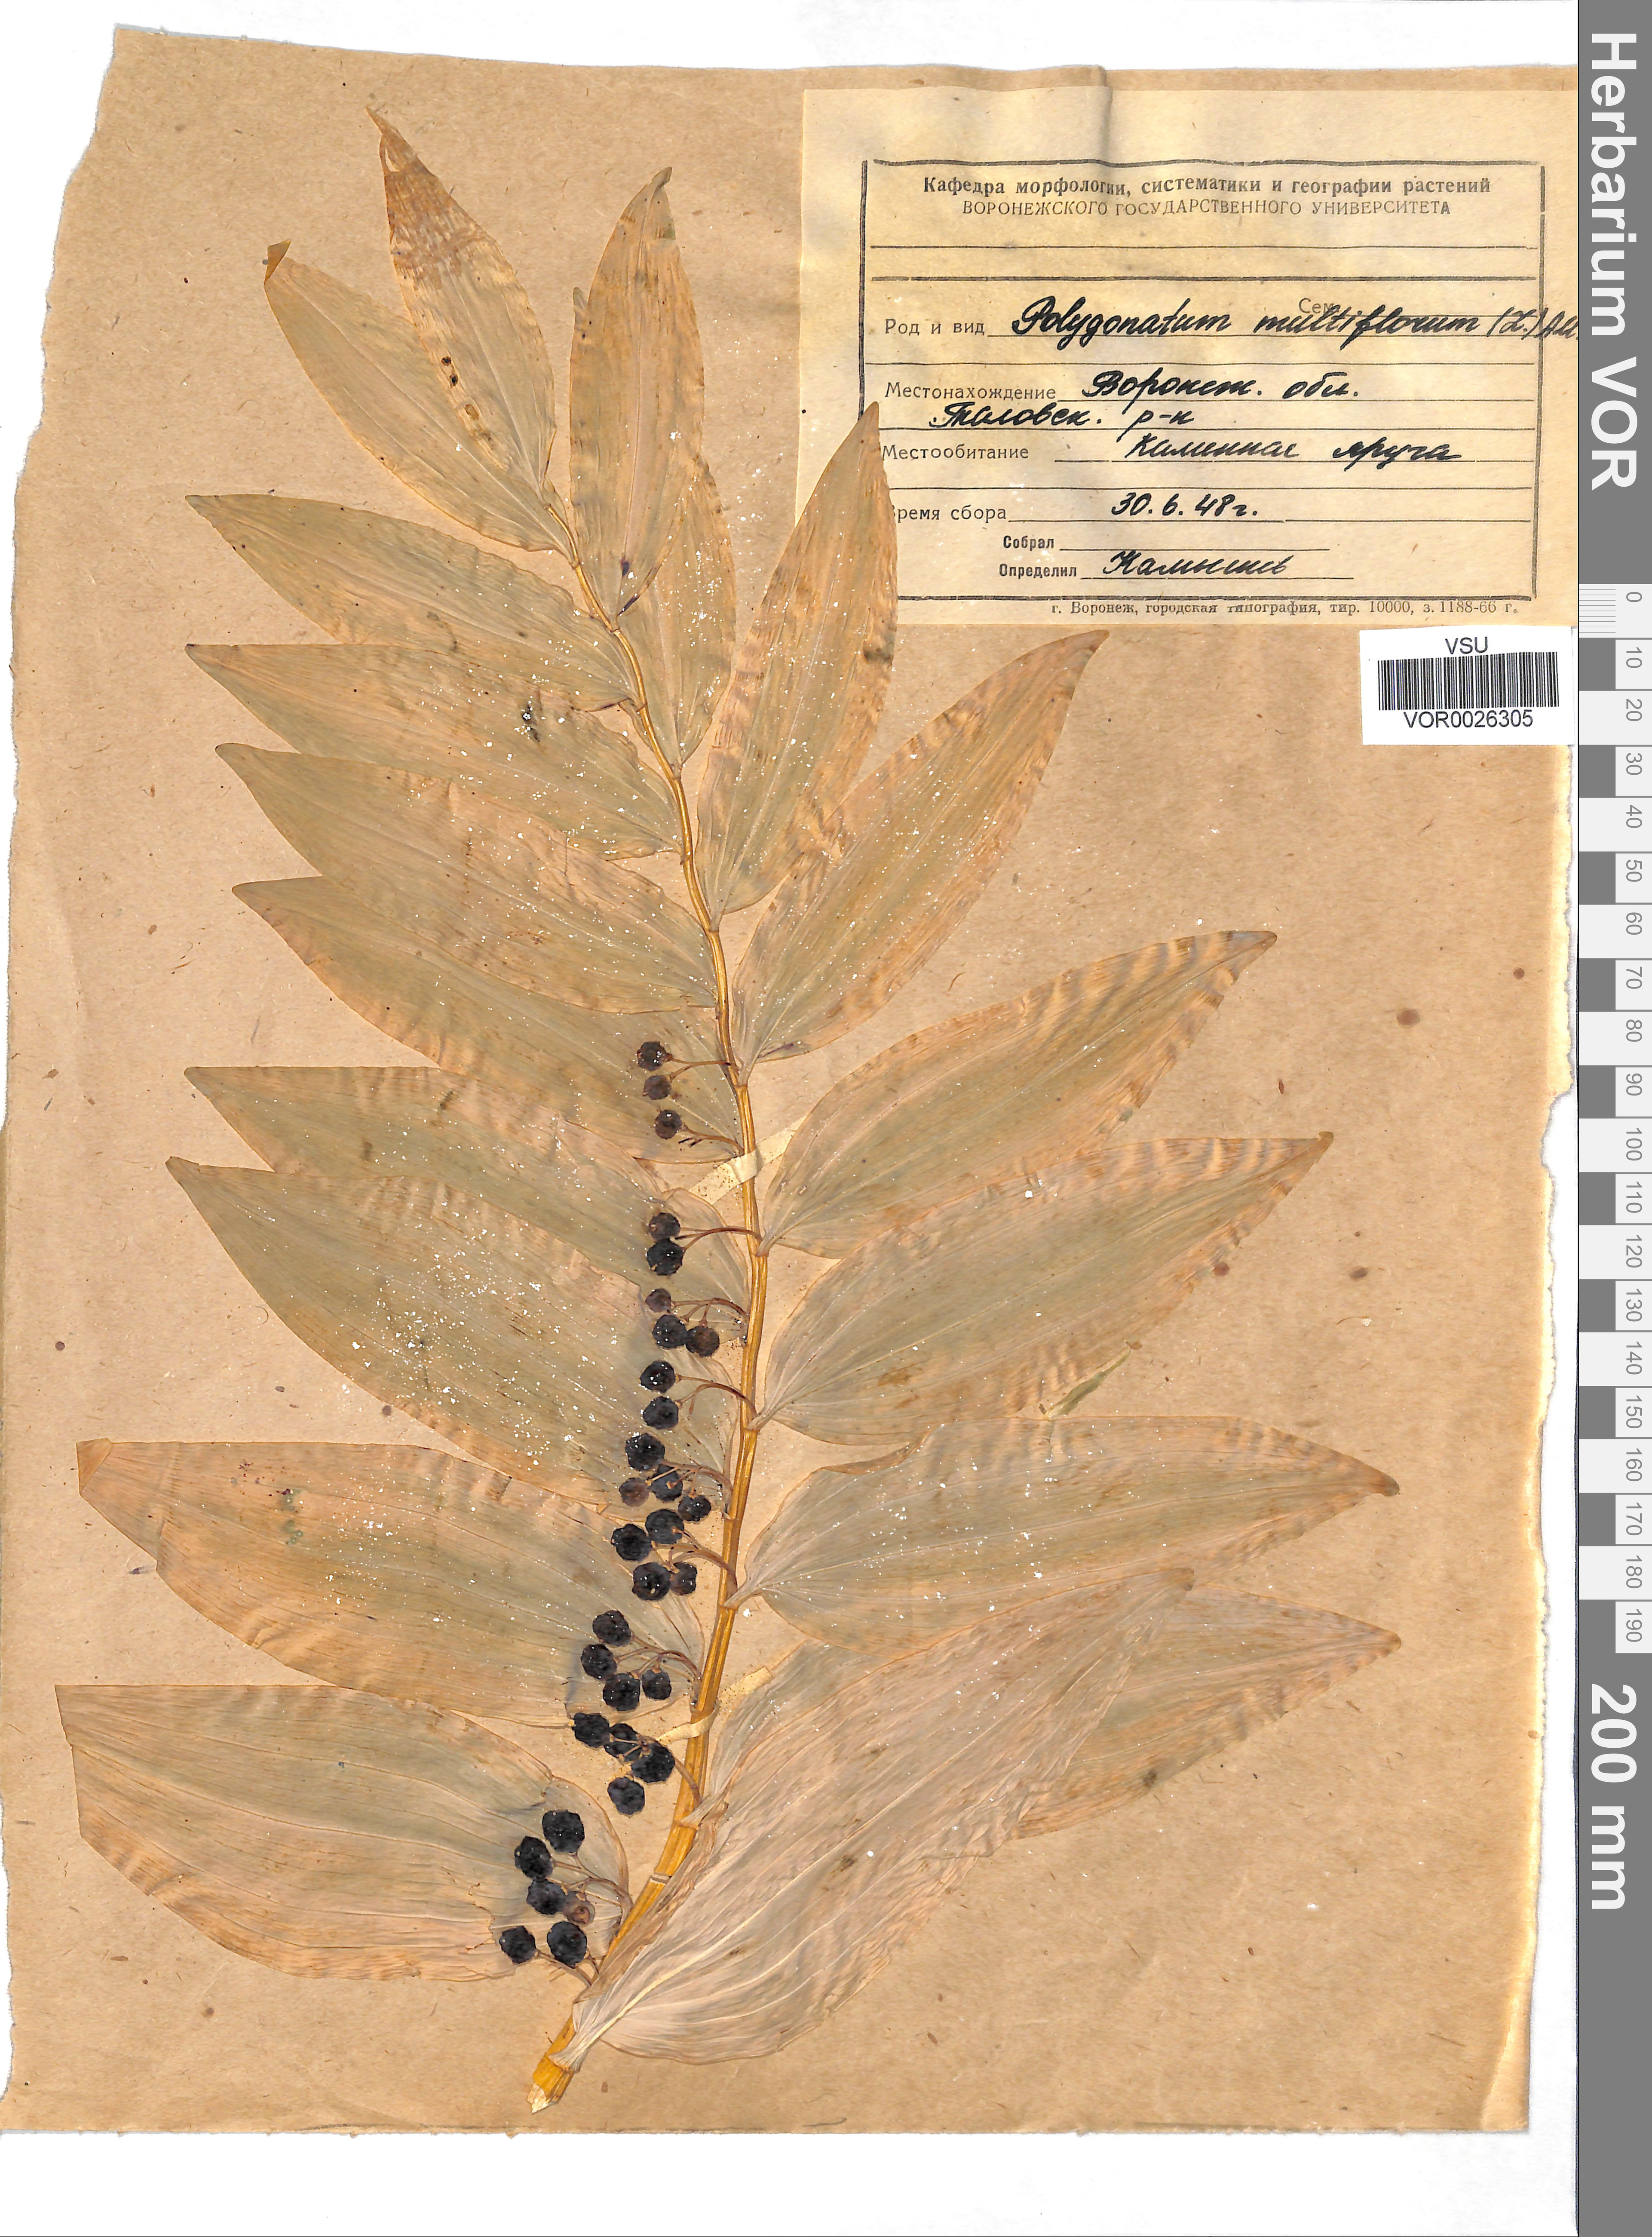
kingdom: Plantae
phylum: Tracheophyta
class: Liliopsida
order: Asparagales
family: Asparagaceae
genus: Polygonatum
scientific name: Polygonatum multiflorum
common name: Solomon's-seal
